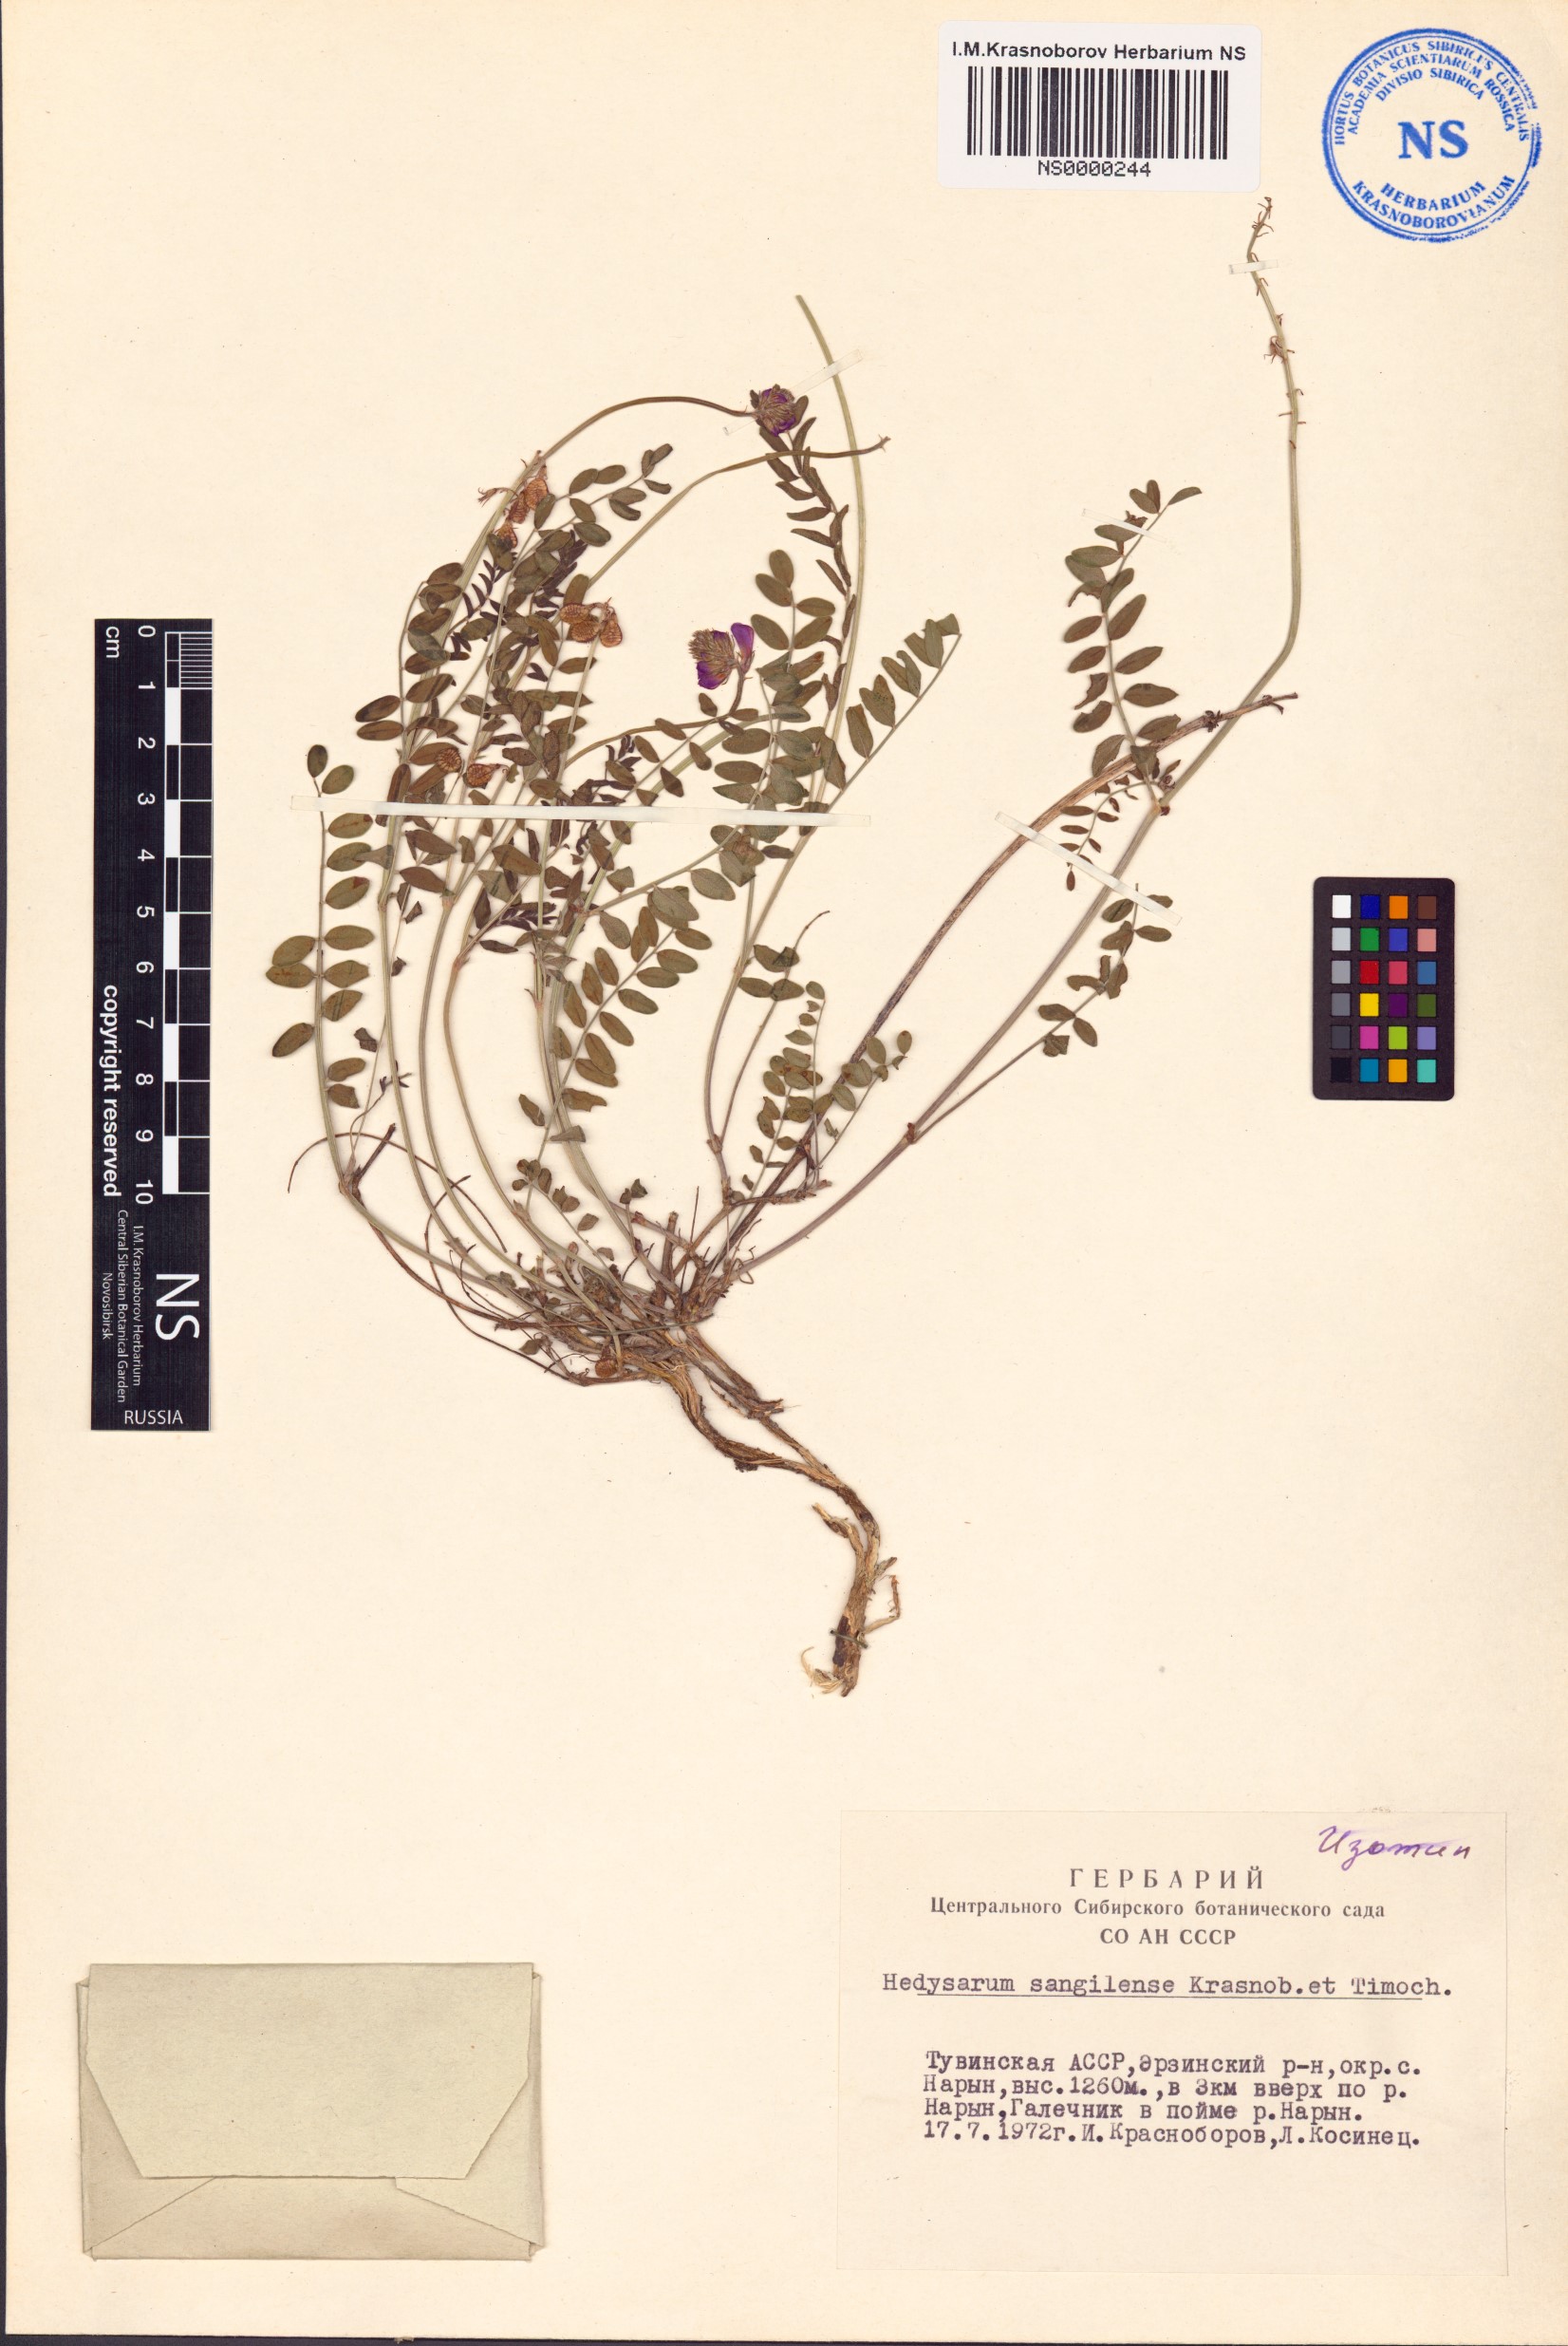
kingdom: Plantae
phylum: Tracheophyta
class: Magnoliopsida
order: Fabales
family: Fabaceae
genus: Hedysarum
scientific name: Hedysarum sangilense
